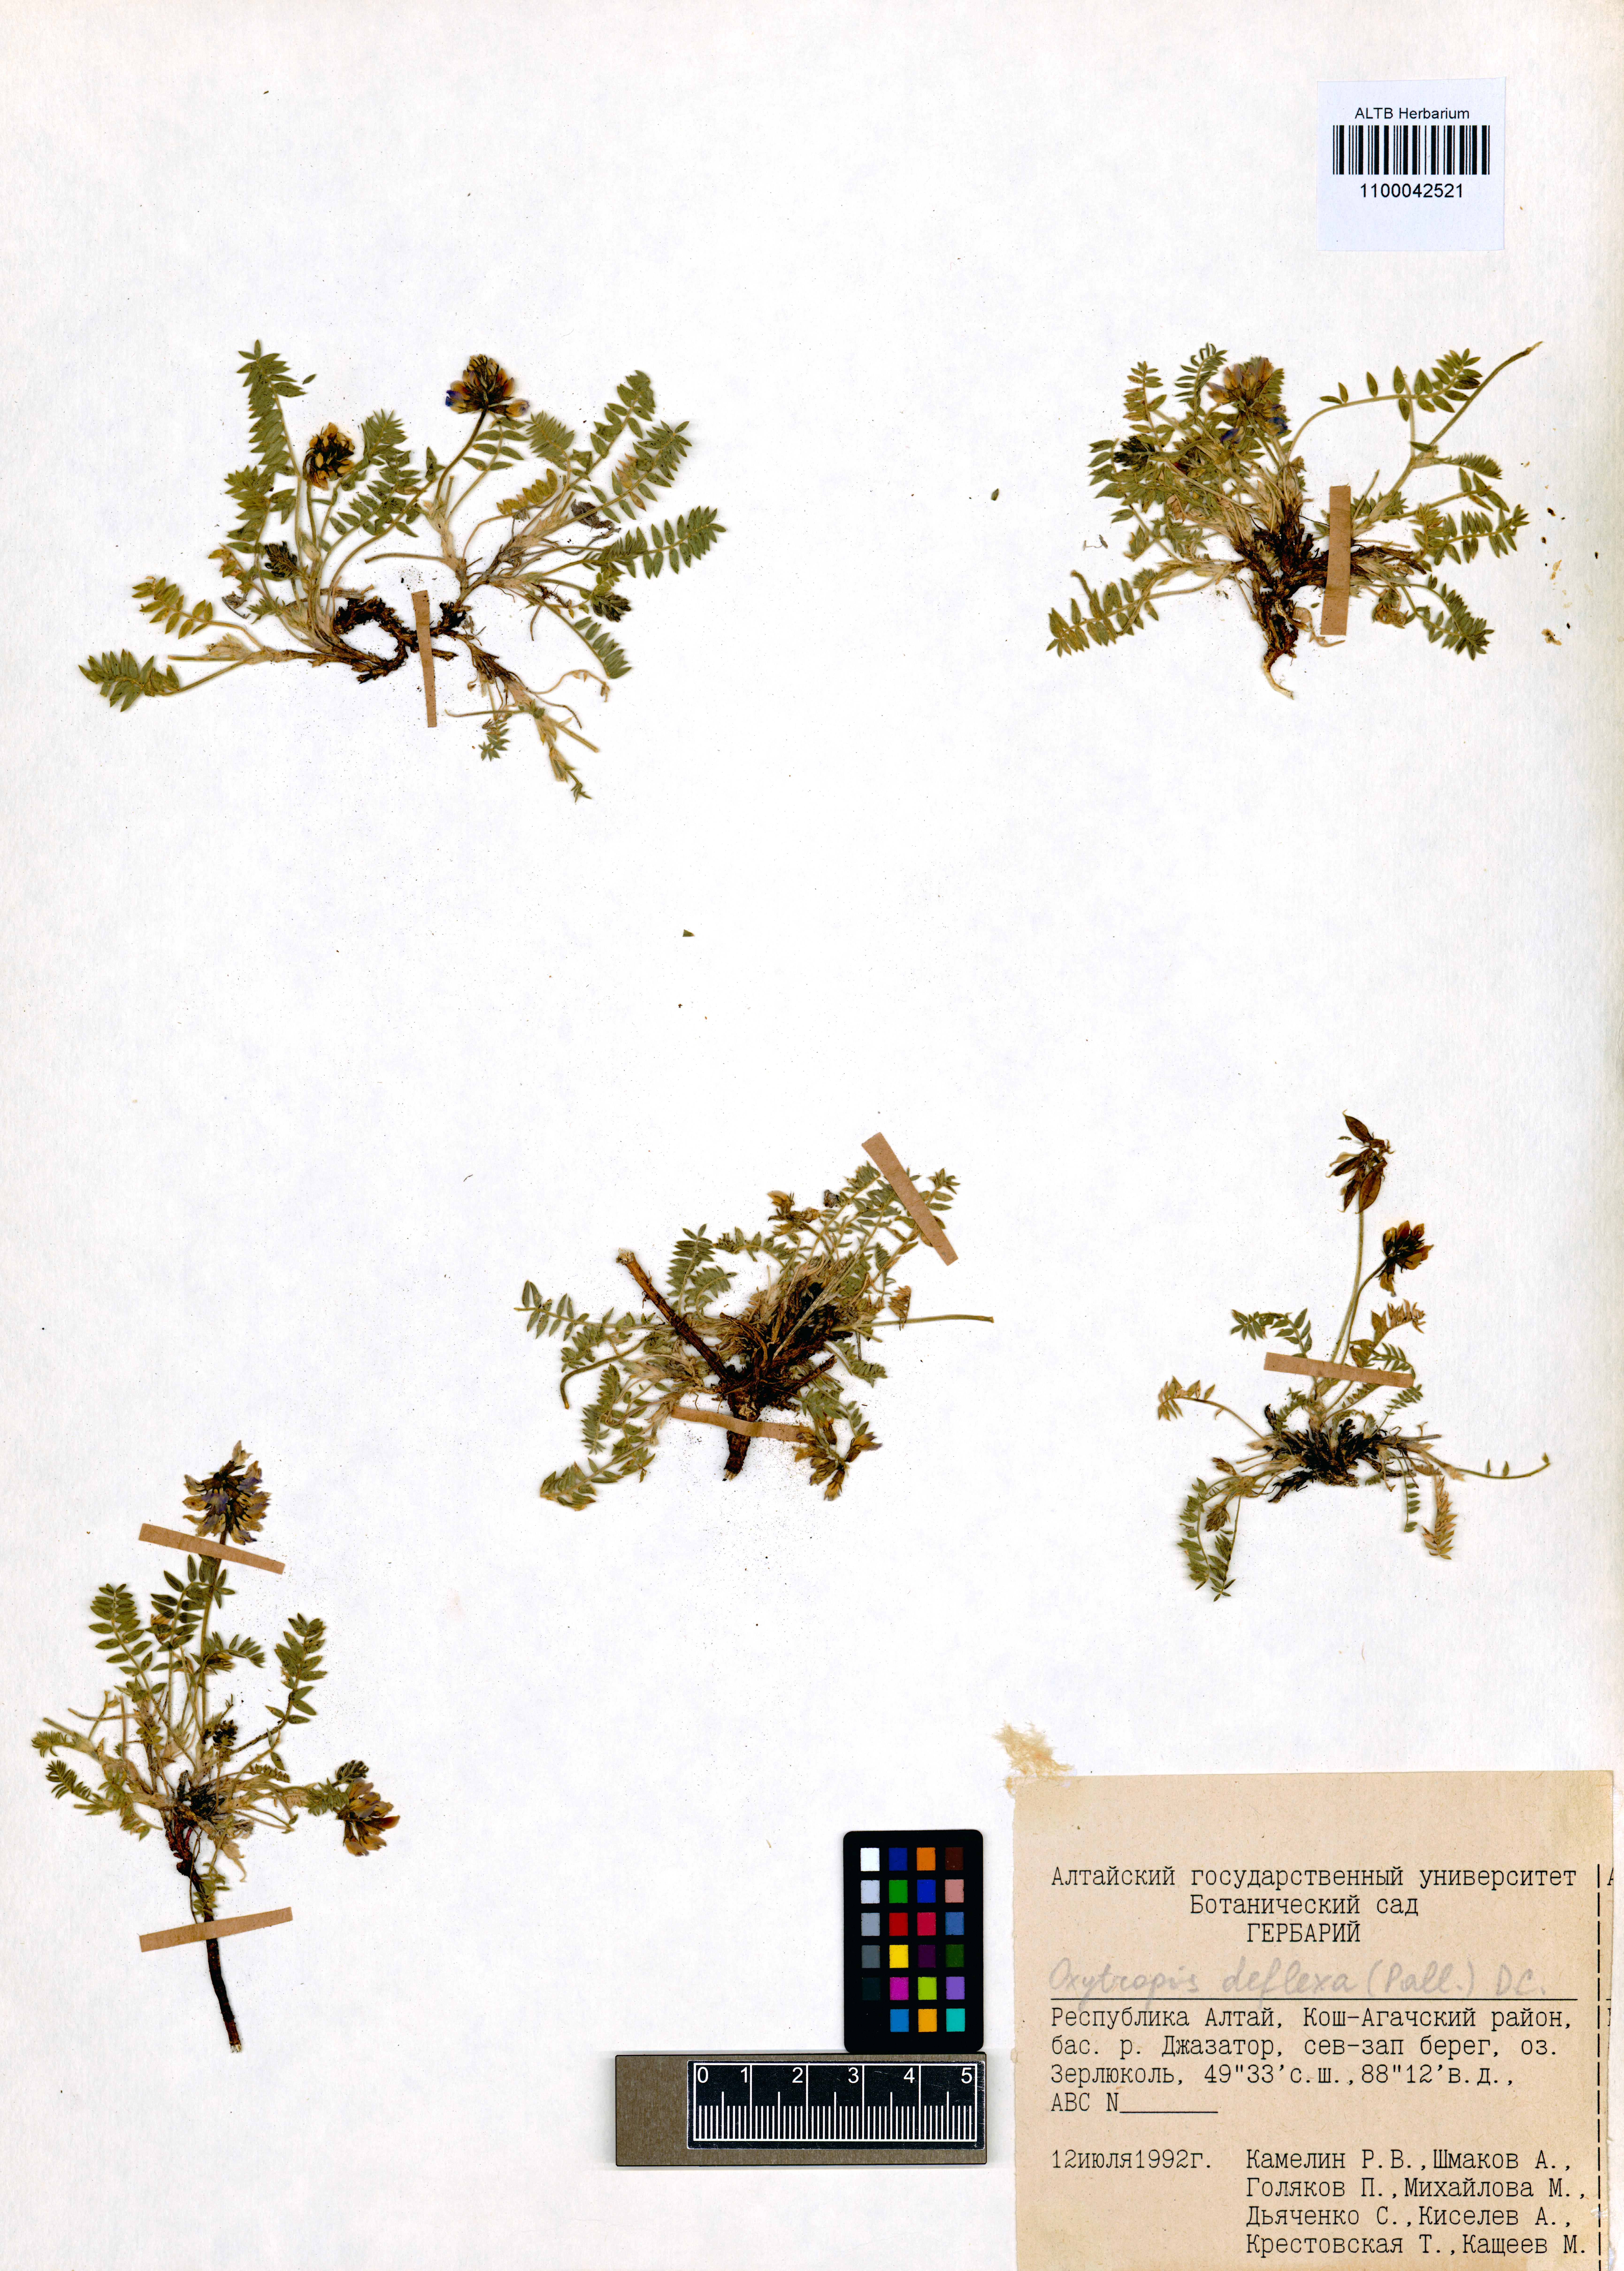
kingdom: Plantae
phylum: Tracheophyta
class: Magnoliopsida
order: Fabales
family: Fabaceae
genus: Oxytropis
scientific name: Oxytropis deflexa
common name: Stemmed oxytrope
